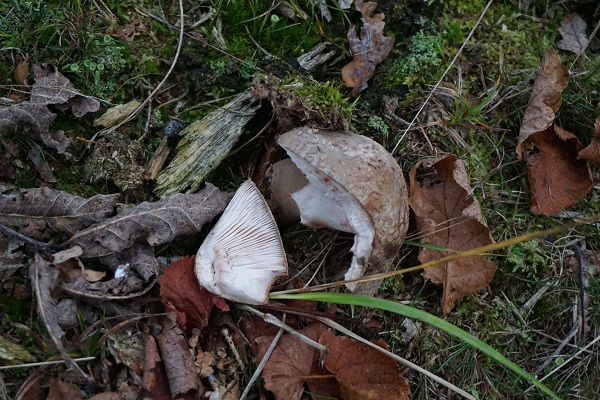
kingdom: Fungi
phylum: Basidiomycota
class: Agaricomycetes
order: Agaricales
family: Amanitaceae
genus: Amanita
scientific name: Amanita rubescens
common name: rødmende fluesvamp
